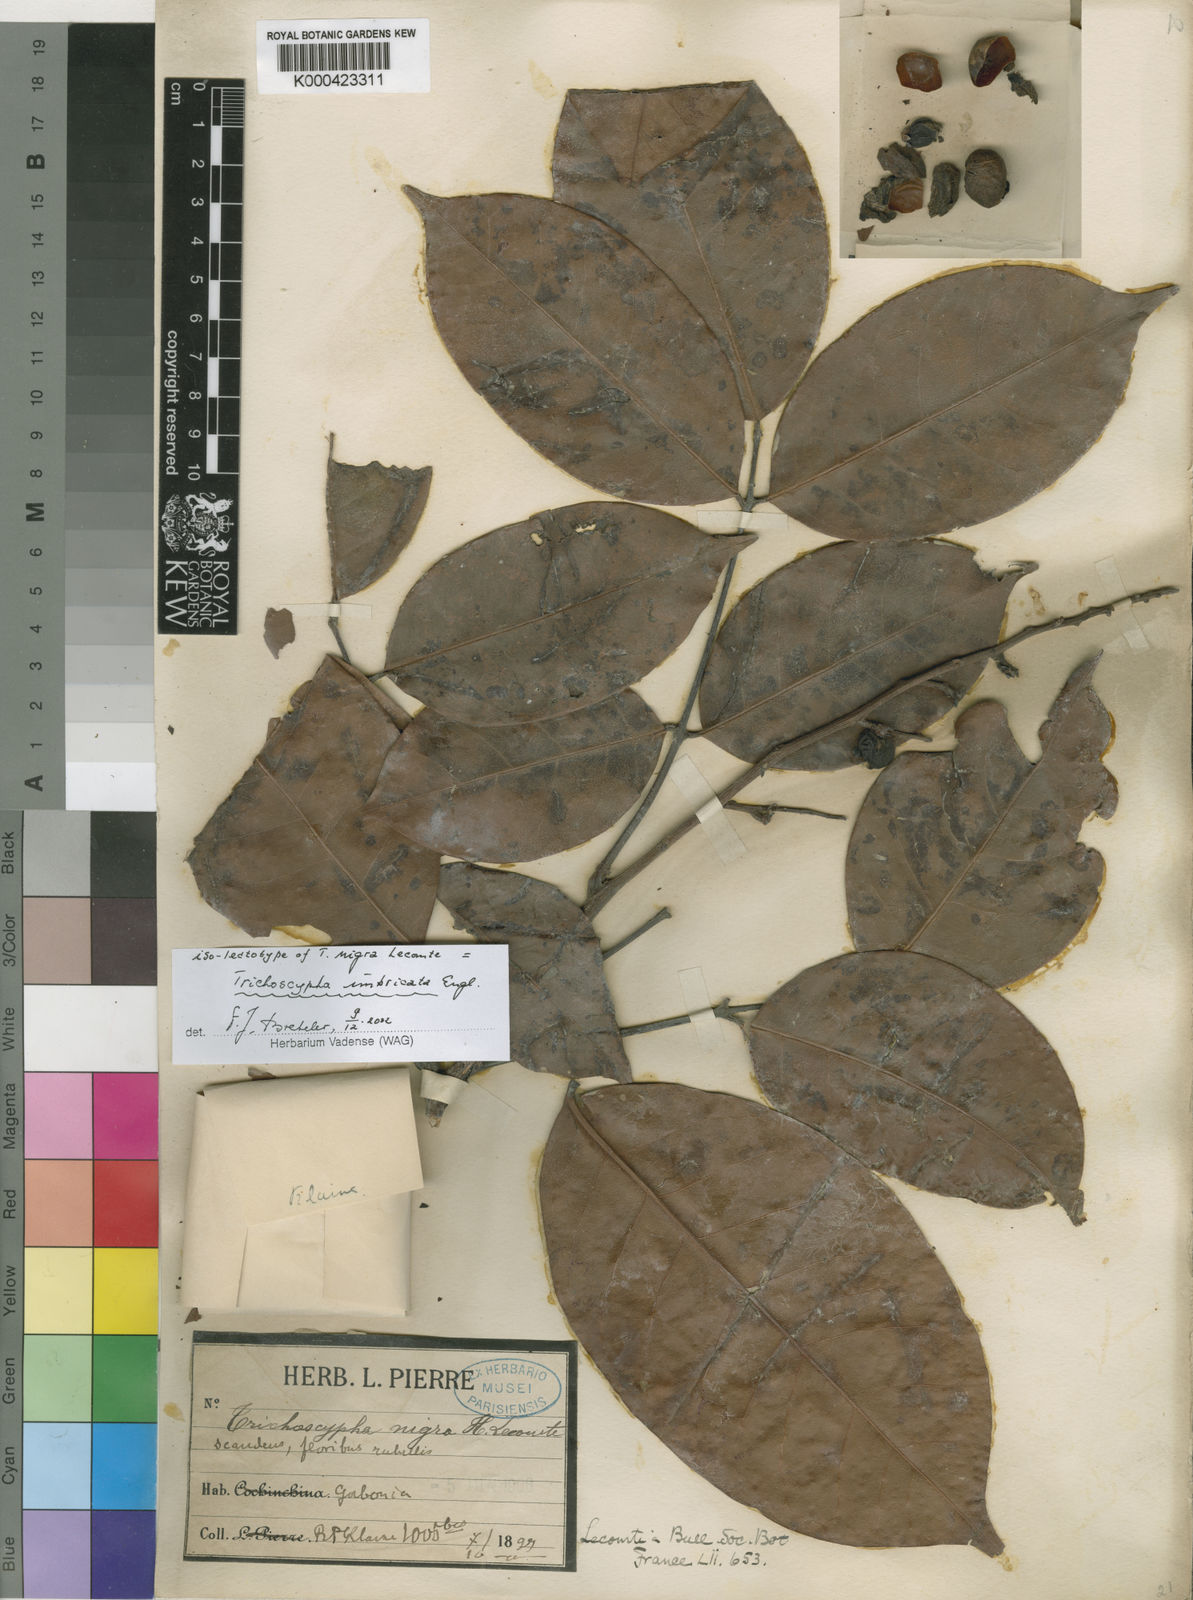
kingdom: Plantae
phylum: Tracheophyta
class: Magnoliopsida
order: Sapindales
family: Anacardiaceae
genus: Trichoscypha
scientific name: Trichoscypha imbricata
